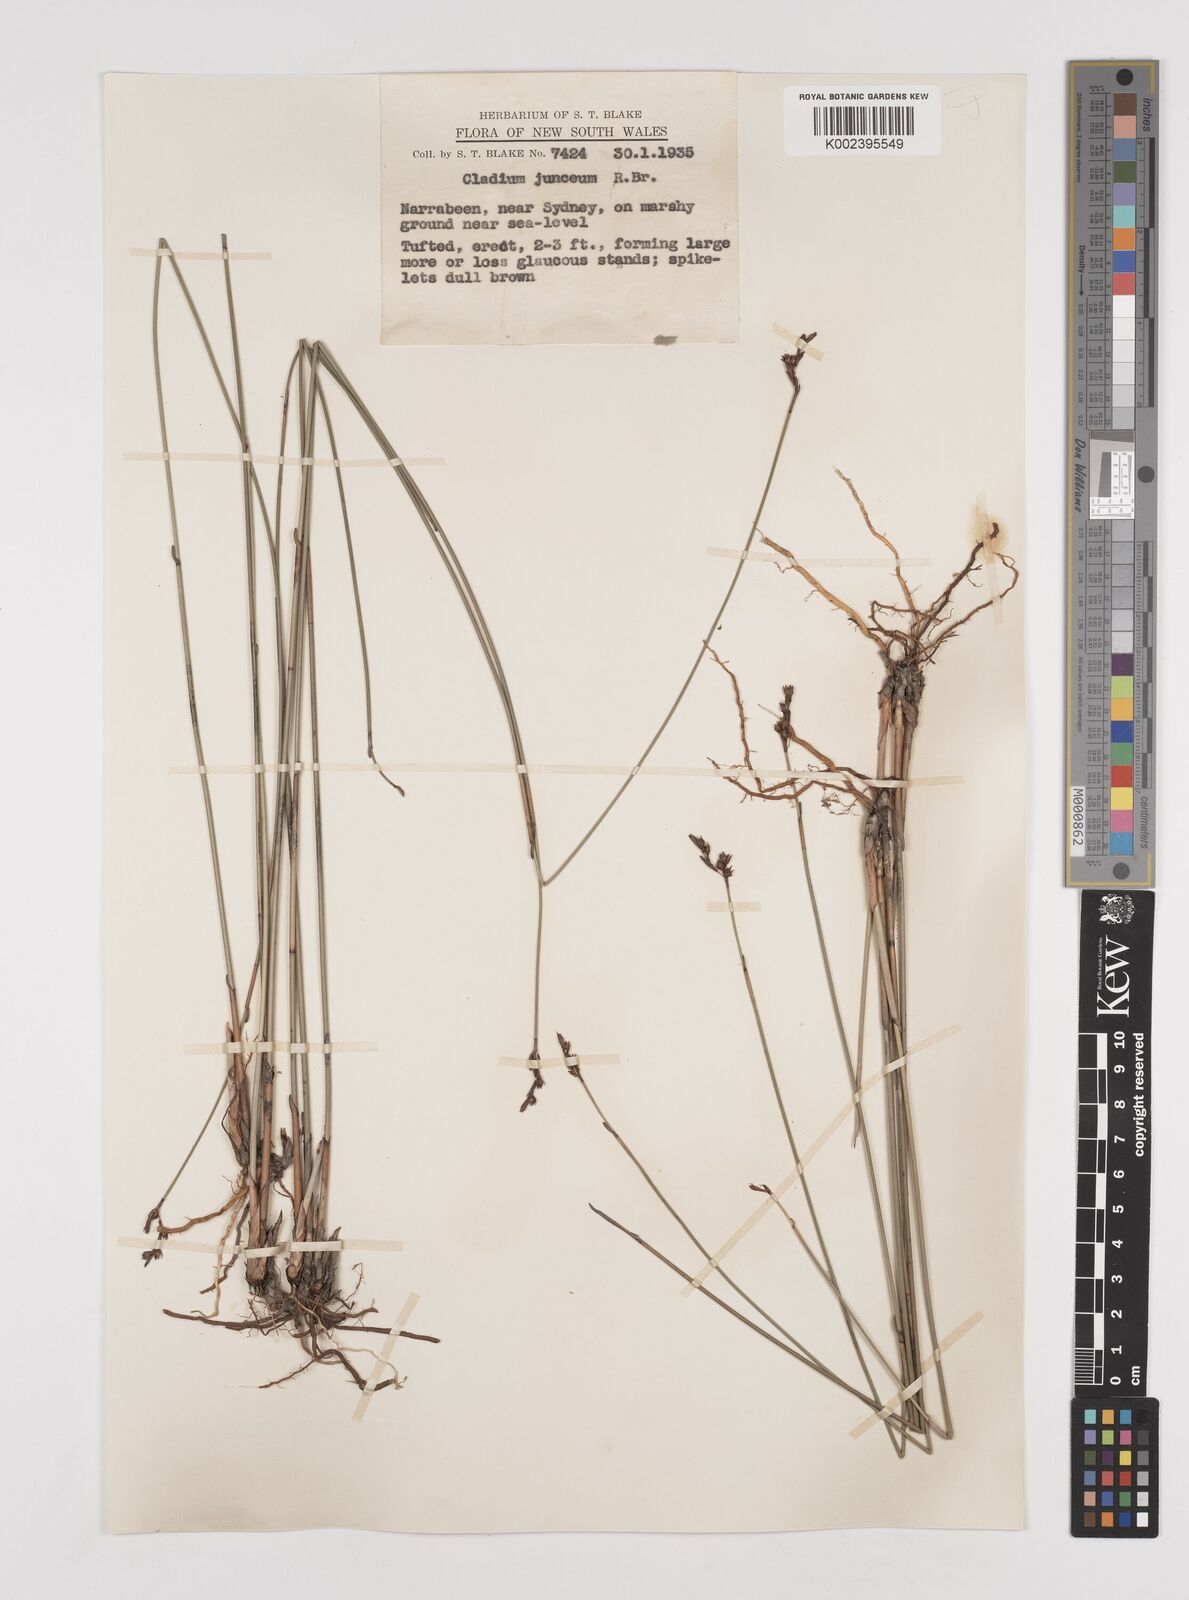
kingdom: Plantae
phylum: Tracheophyta
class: Liliopsida
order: Poales
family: Cyperaceae
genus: Machaerina
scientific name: Machaerina juncea
